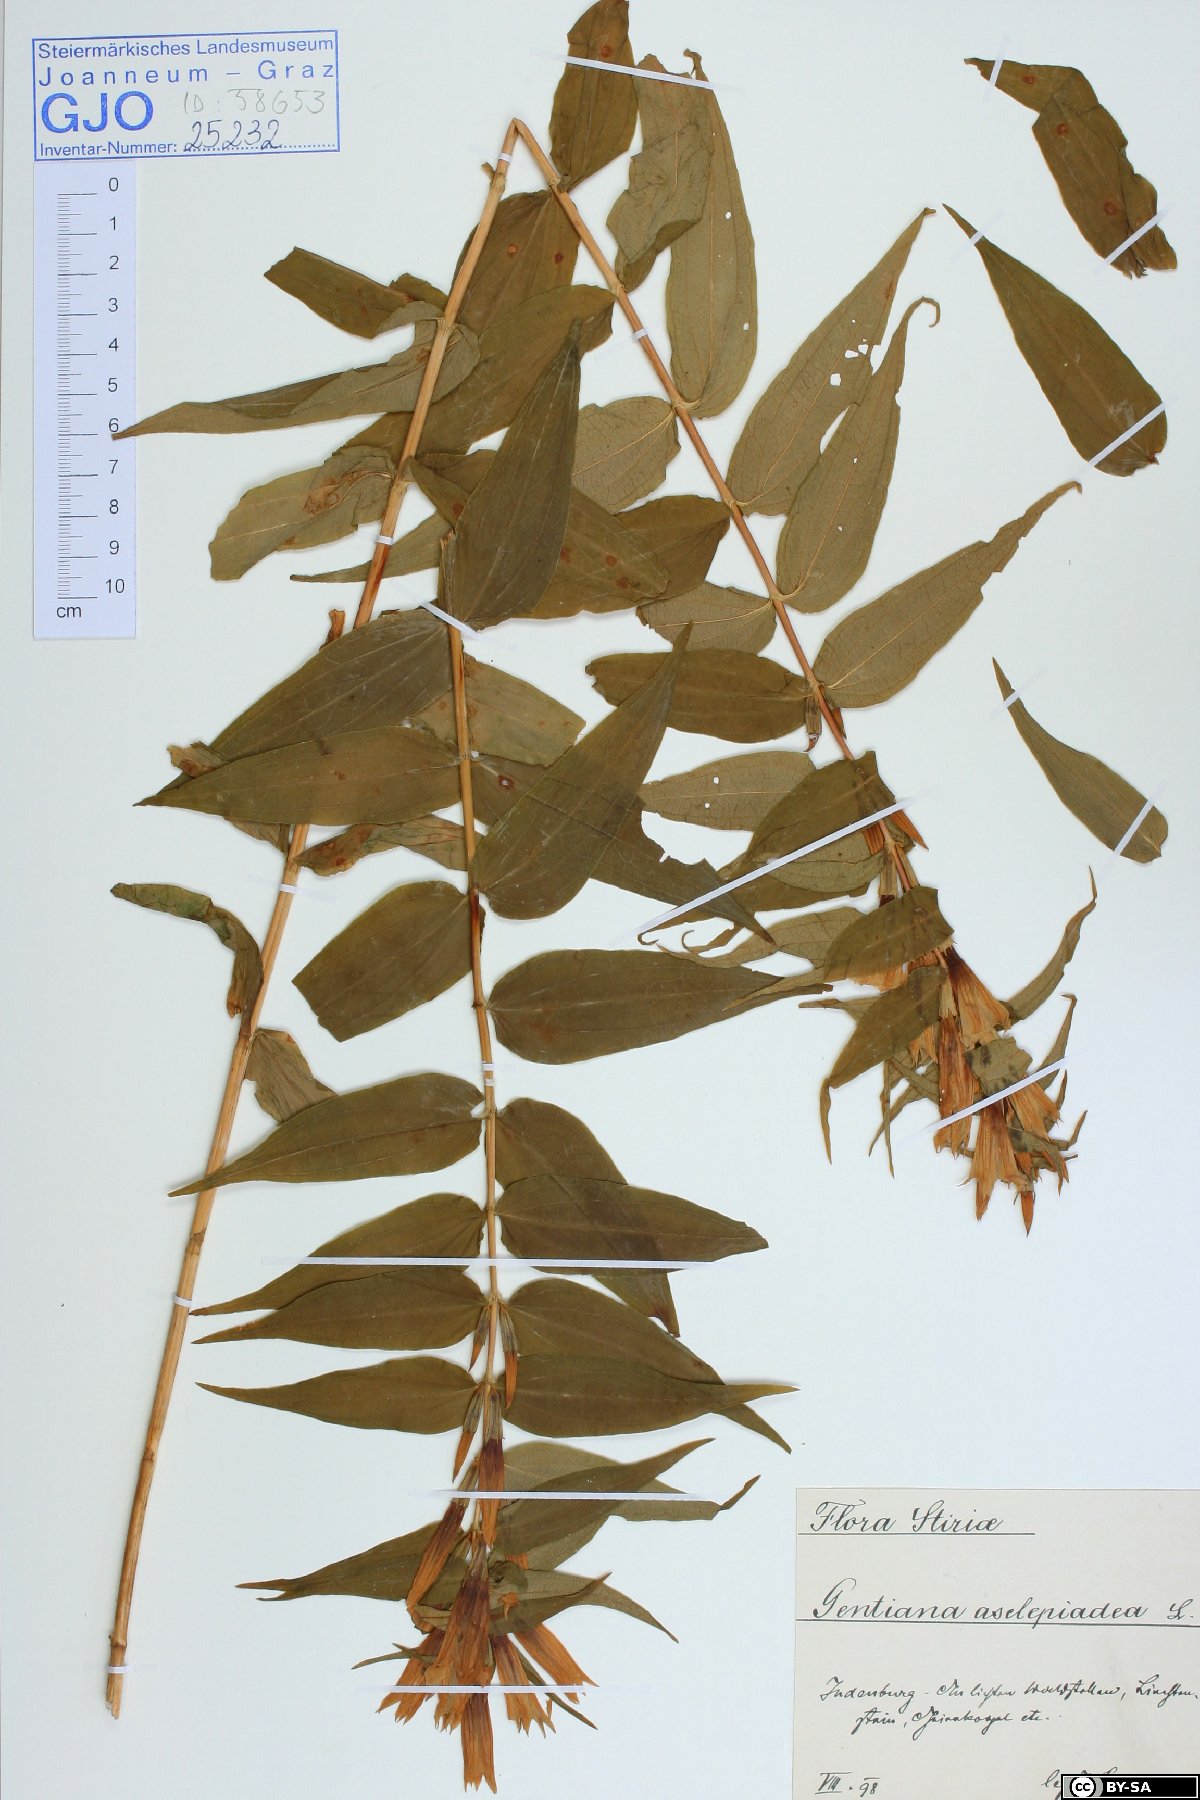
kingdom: Plantae
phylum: Tracheophyta
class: Magnoliopsida
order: Gentianales
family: Gentianaceae
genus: Gentiana
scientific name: Gentiana asclepiadea
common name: Willow gentian
